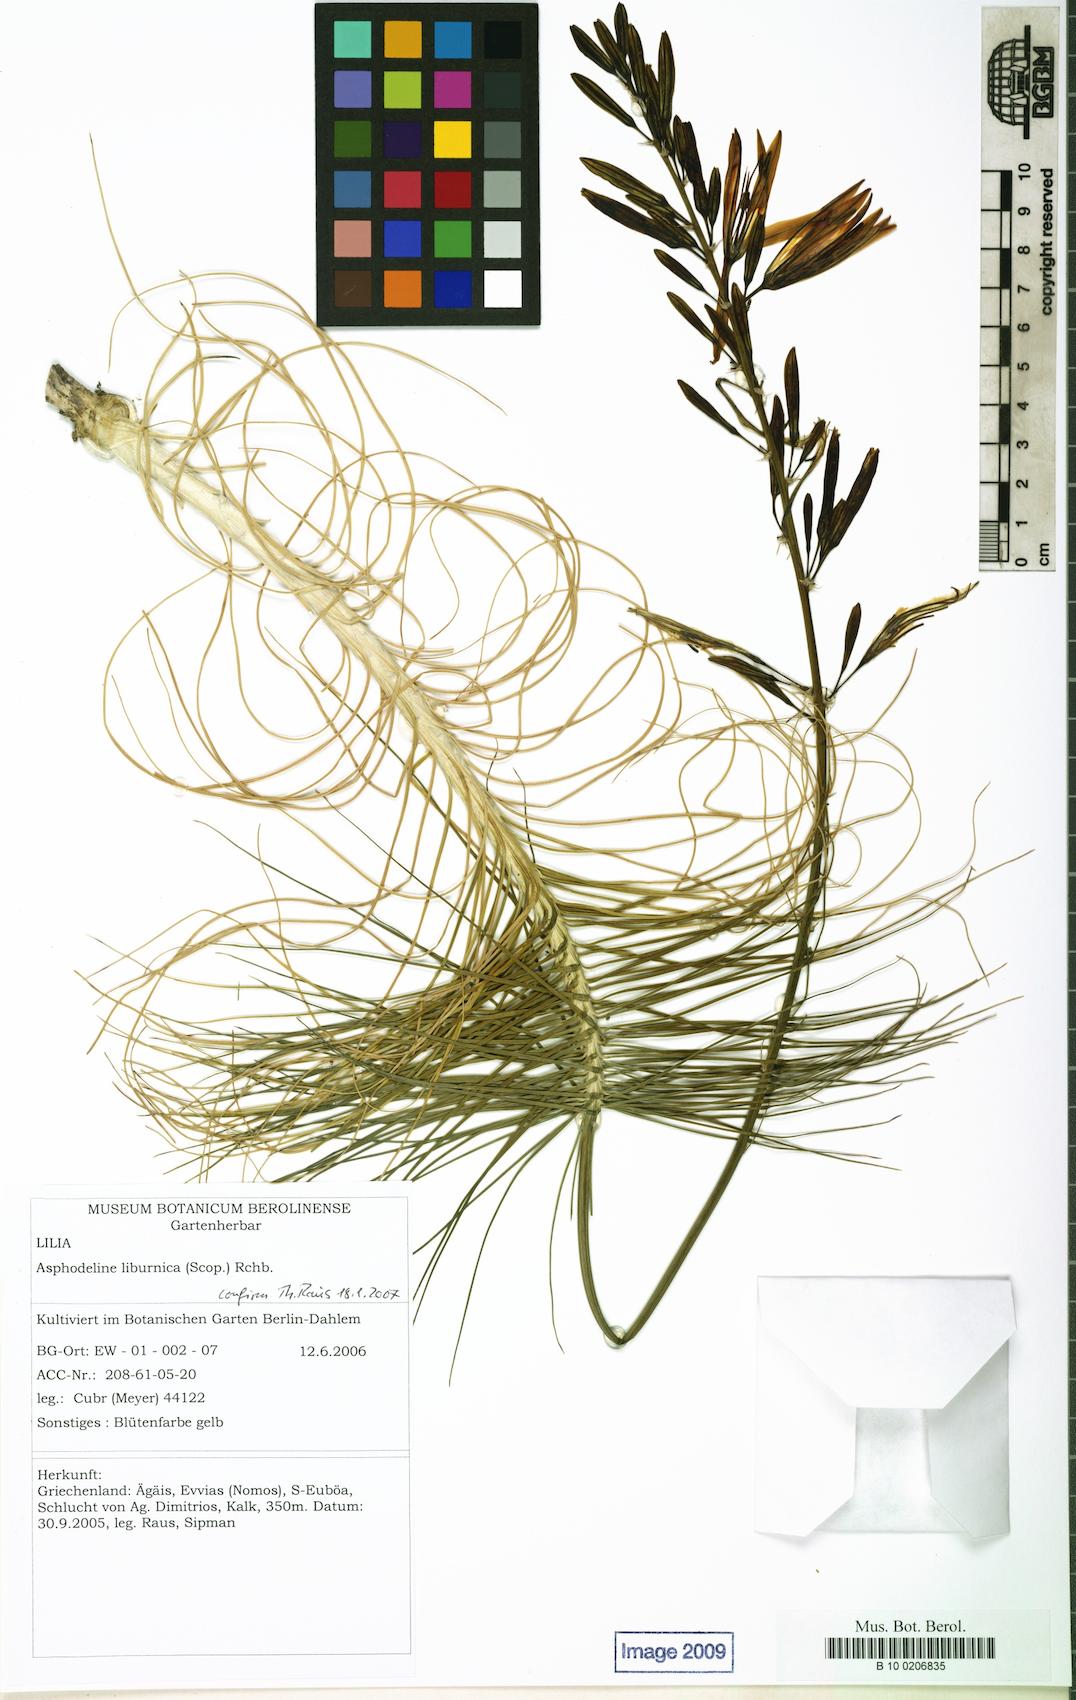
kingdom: Plantae
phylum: Tracheophyta
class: Liliopsida
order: Asparagales
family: Asphodelaceae
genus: Asphodeline
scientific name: Asphodeline liburnica
